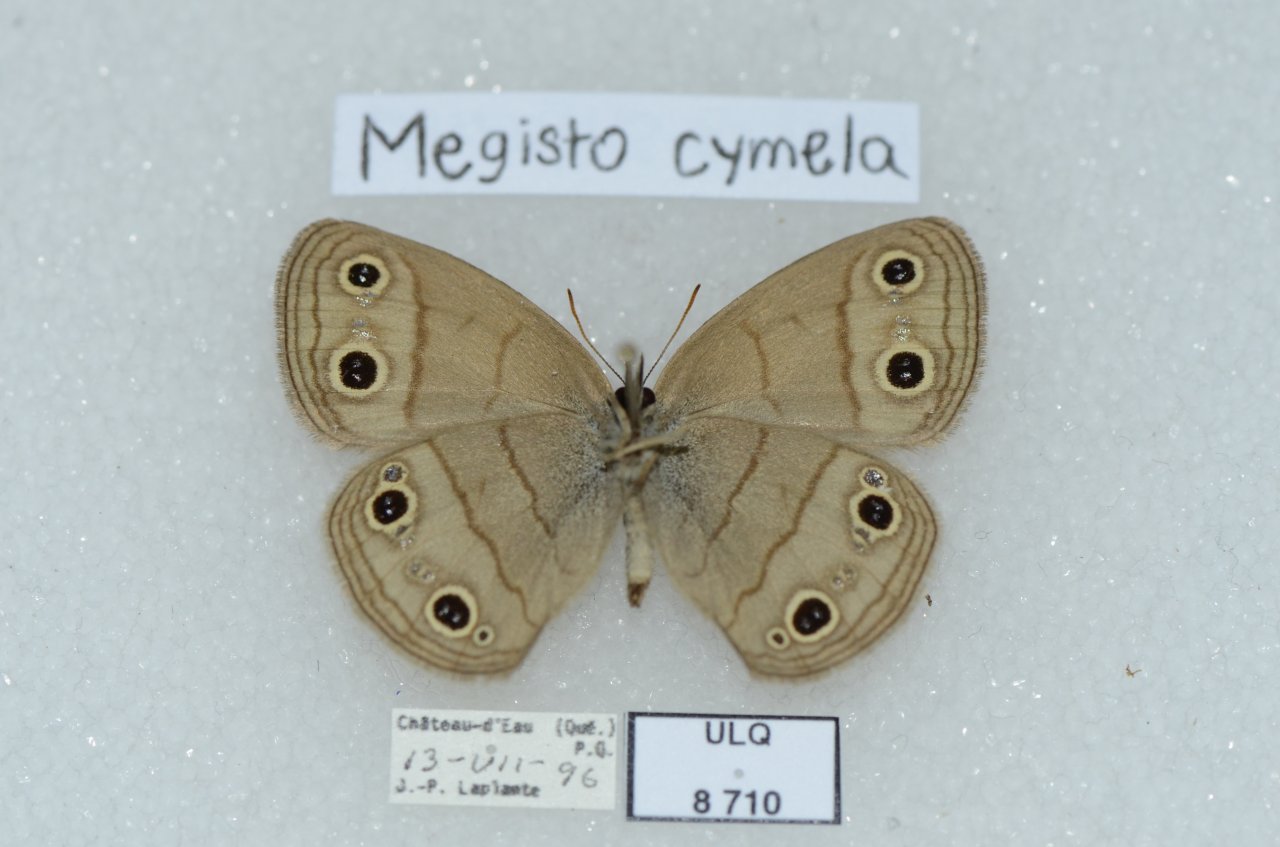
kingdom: Animalia
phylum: Arthropoda
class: Insecta
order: Lepidoptera
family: Nymphalidae
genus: Euptychia
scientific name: Euptychia cymela
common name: Little Wood Satyr
